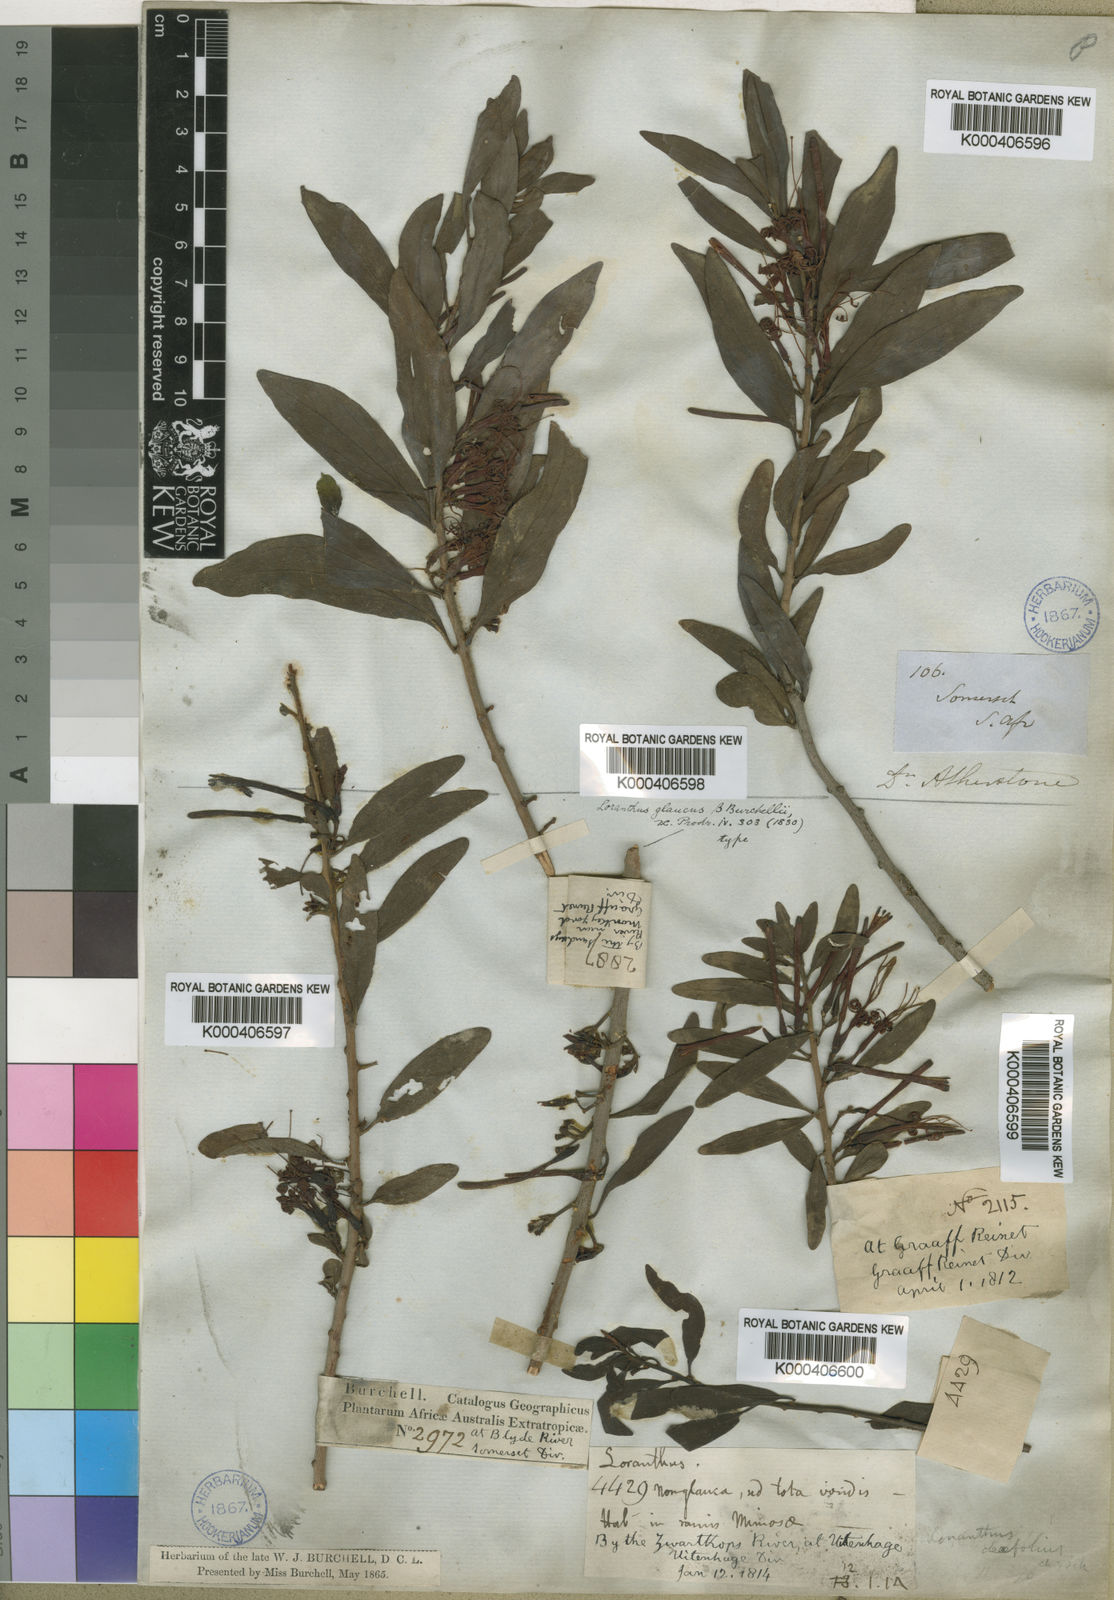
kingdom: Plantae
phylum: Tracheophyta
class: Magnoliopsida
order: Santalales
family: Loranthaceae
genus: Moquiniella
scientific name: Moquiniella rubra
